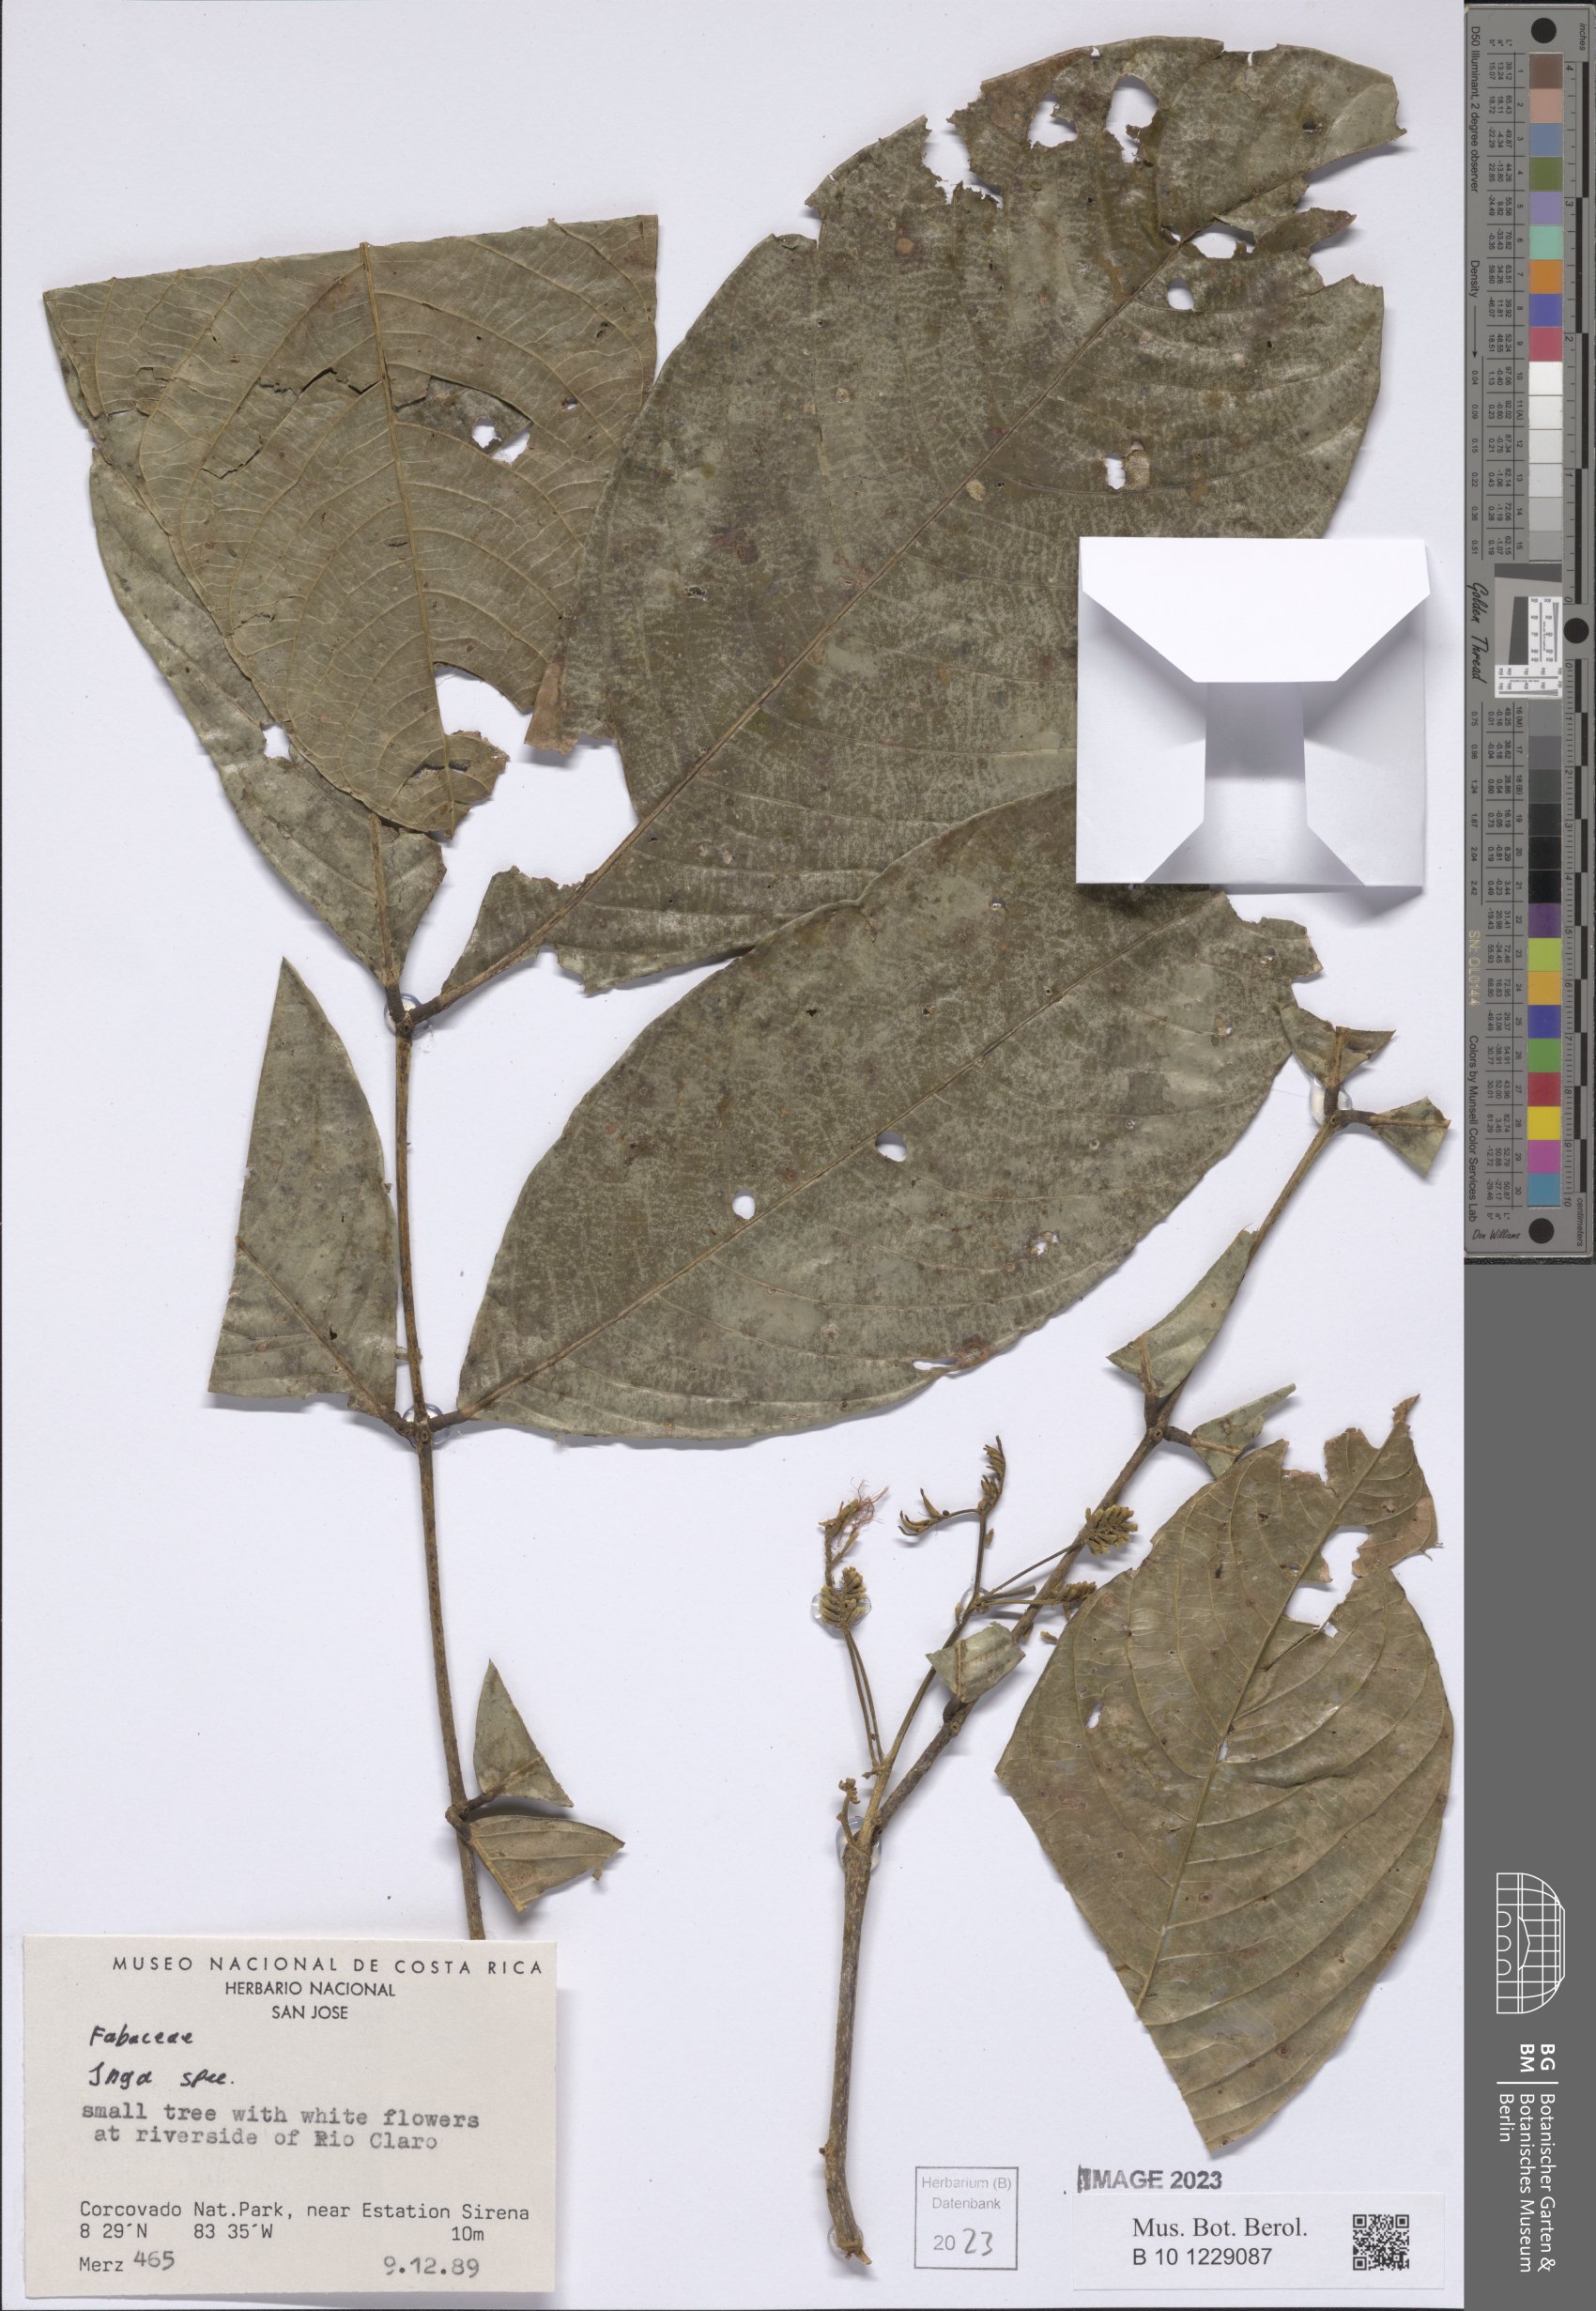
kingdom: Plantae
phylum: Tracheophyta
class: Magnoliopsida
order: Fabales
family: Fabaceae
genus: Inga
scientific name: Inga
